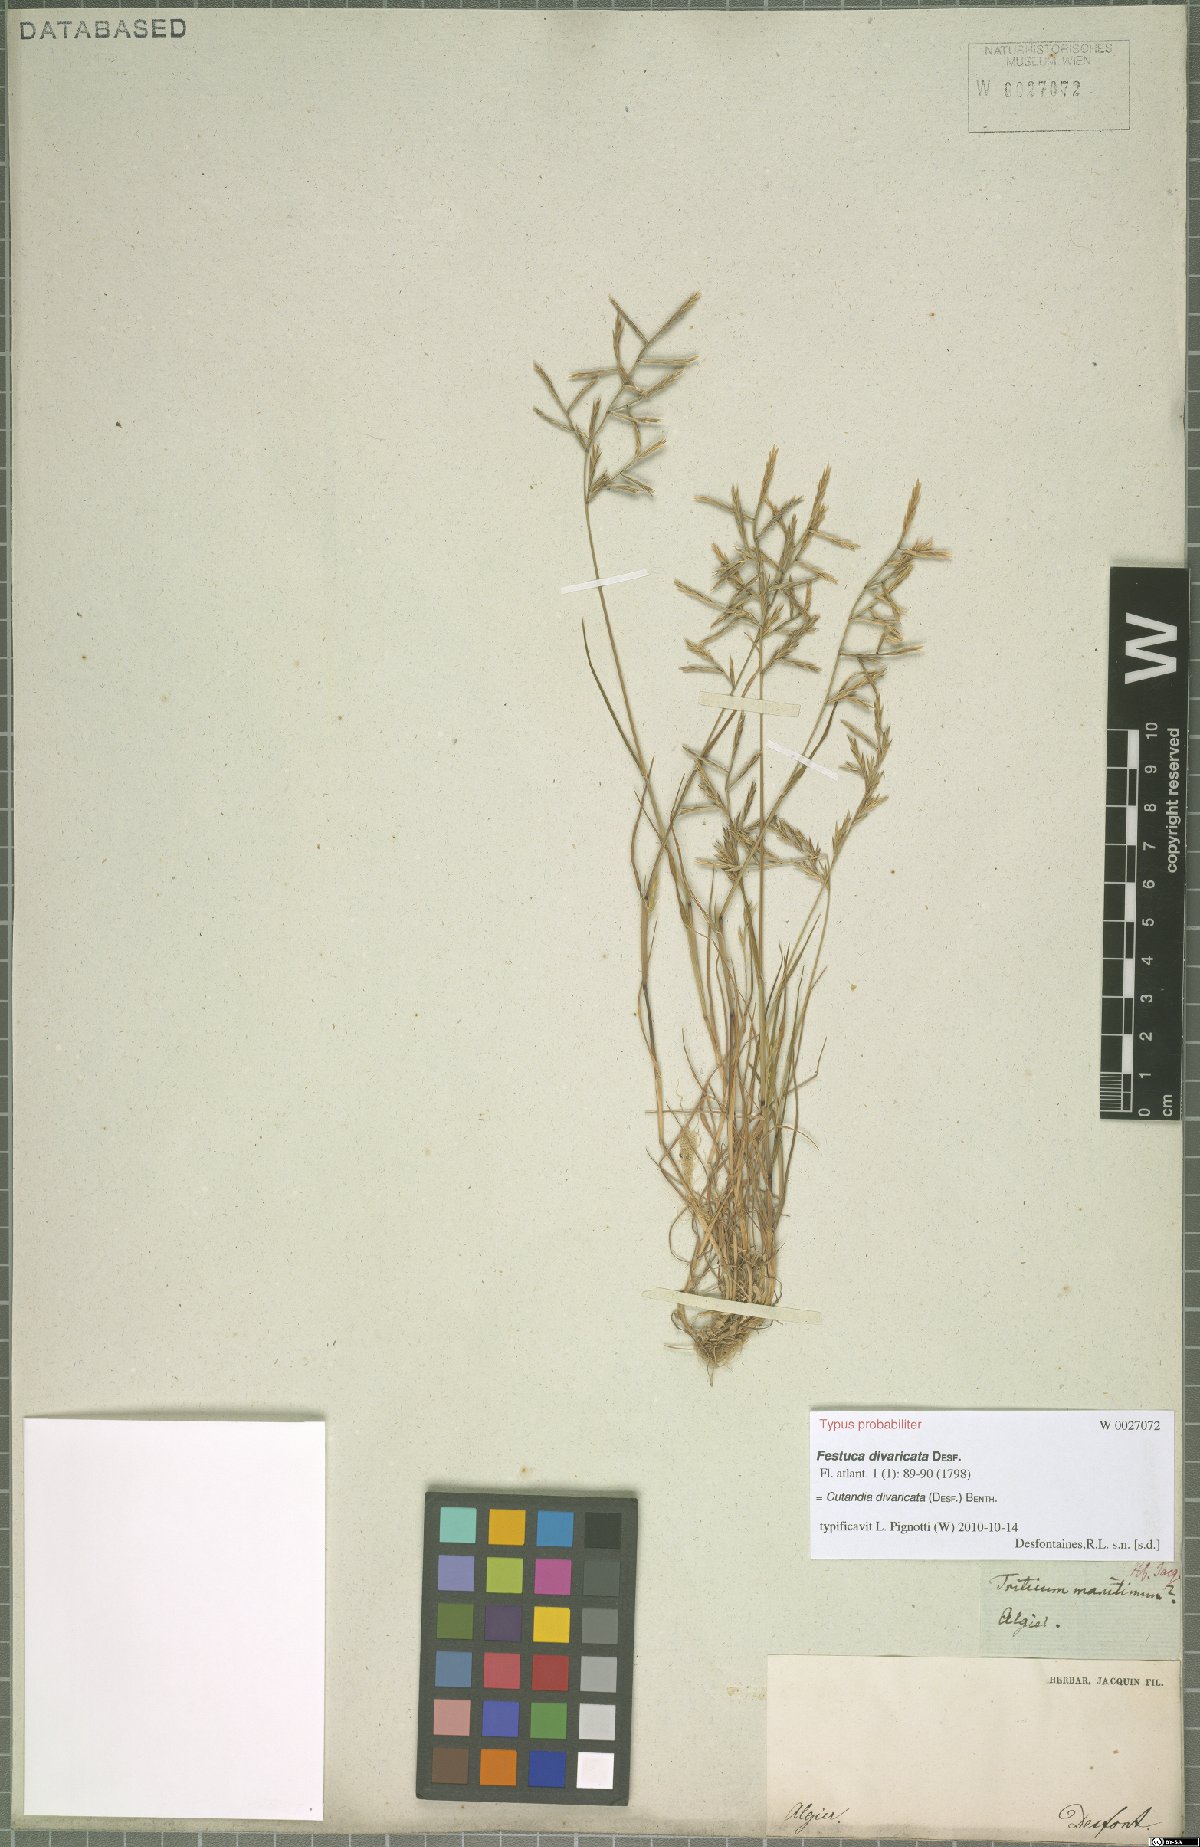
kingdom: Plantae
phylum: Tracheophyta
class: Liliopsida
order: Poales
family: Poaceae
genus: Cutandia
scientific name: Cutandia divaricata
